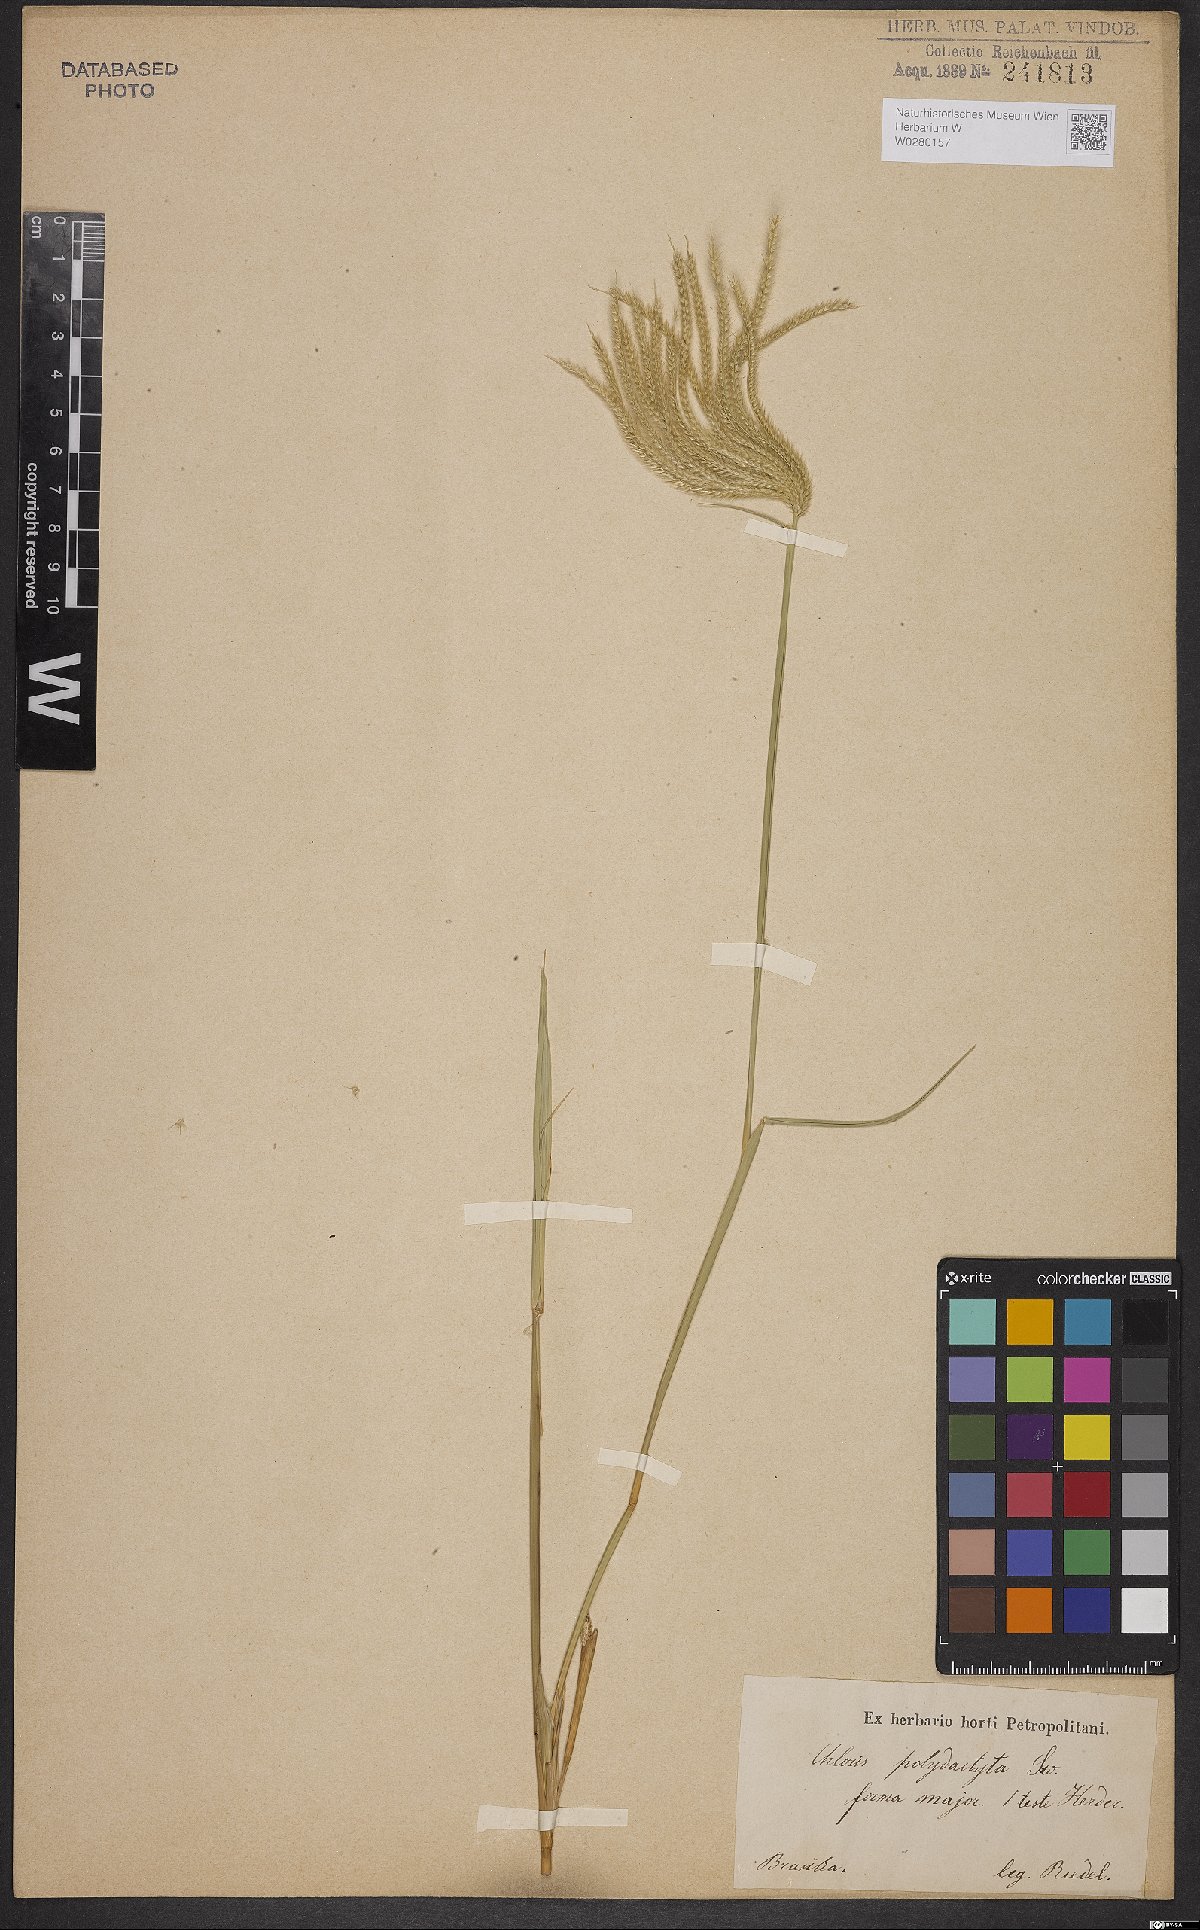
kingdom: Plantae
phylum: Tracheophyta
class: Liliopsida
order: Poales
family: Poaceae
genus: Stapfochloa
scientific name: Stapfochloa elata
